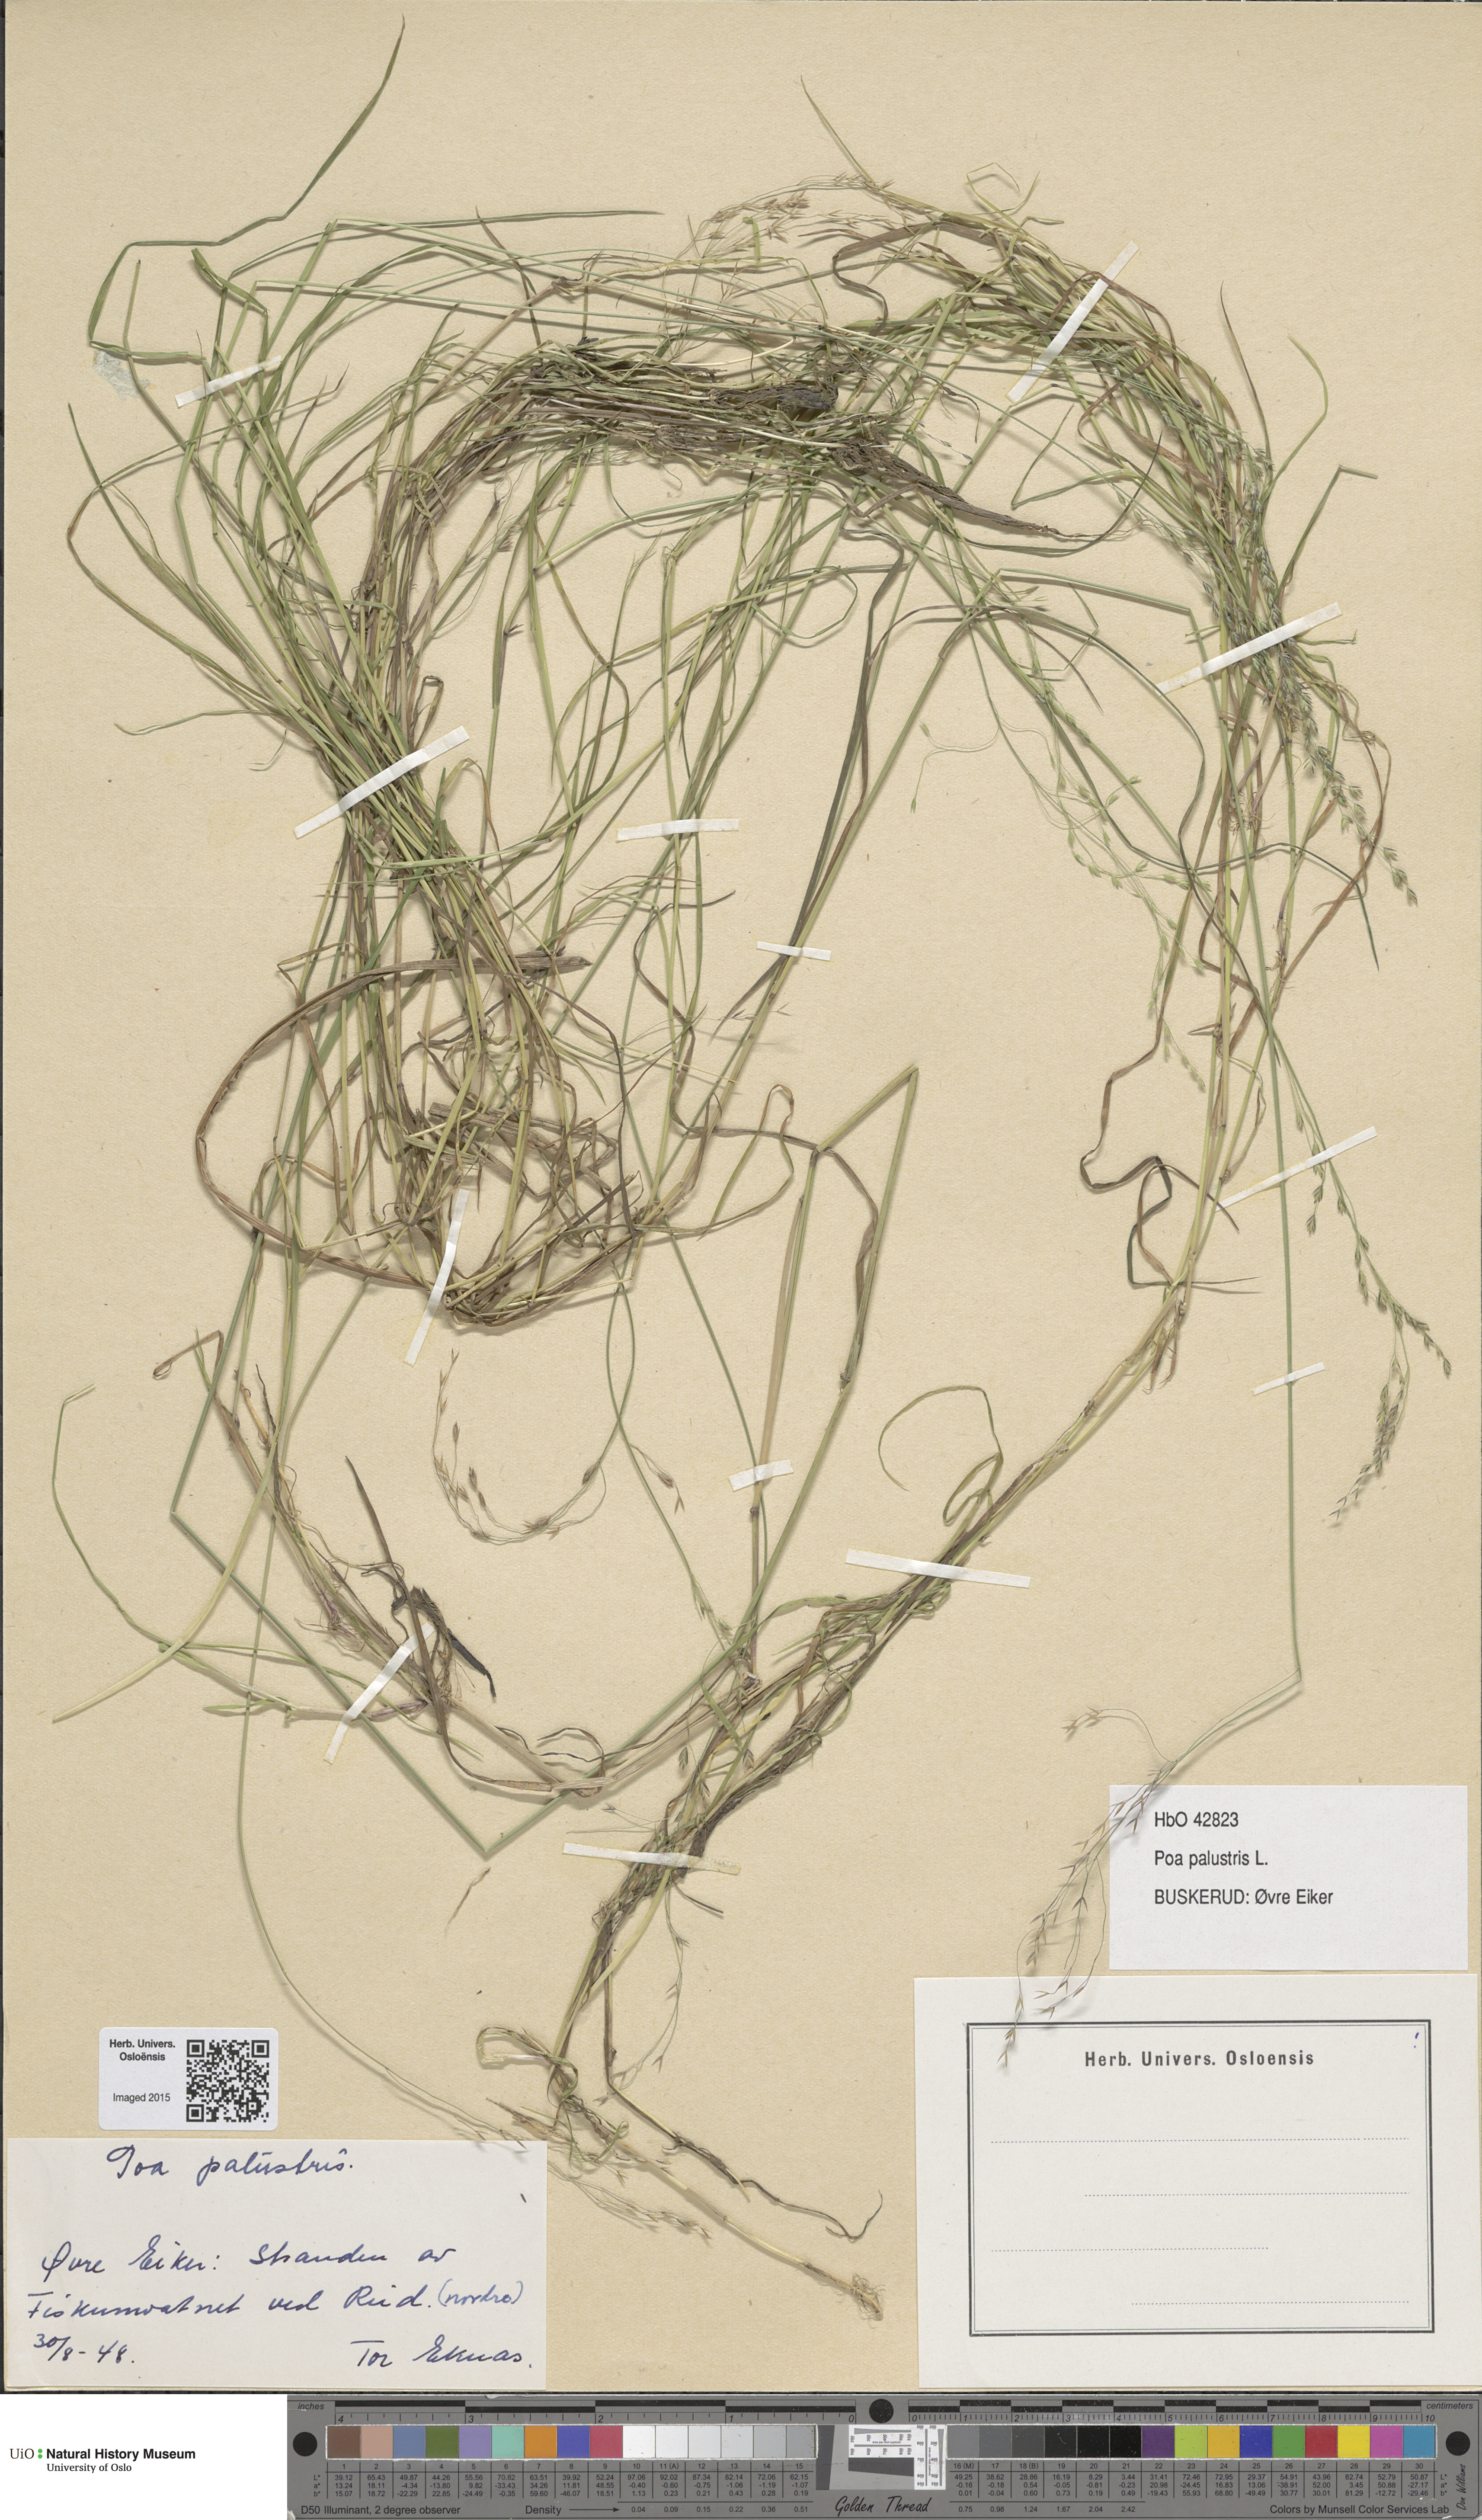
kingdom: Plantae
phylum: Tracheophyta
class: Liliopsida
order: Poales
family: Poaceae
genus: Poa
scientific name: Poa palustris
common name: Swamp meadow-grass
